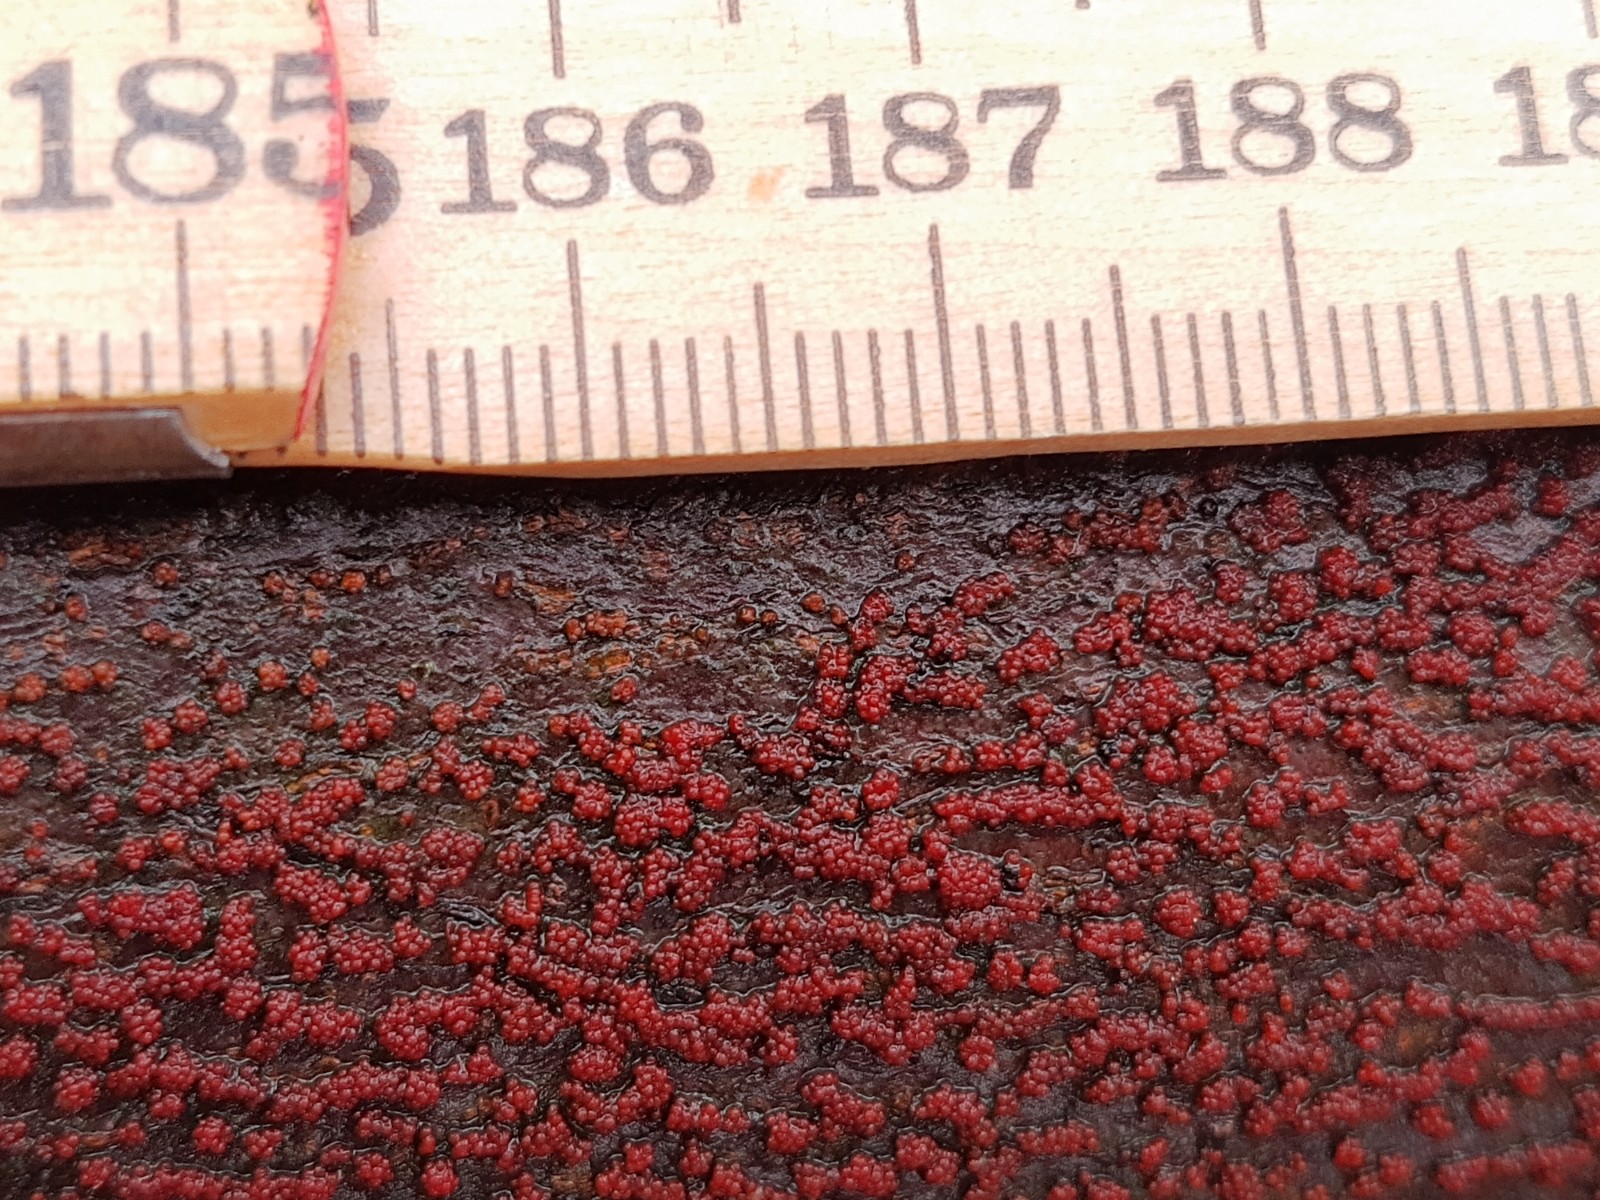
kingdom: Fungi
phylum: Ascomycota
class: Sordariomycetes
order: Hypocreales
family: Nectriaceae
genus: Neonectria
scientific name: Neonectria coccinea
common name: bøgebark-cinnobersvamp
